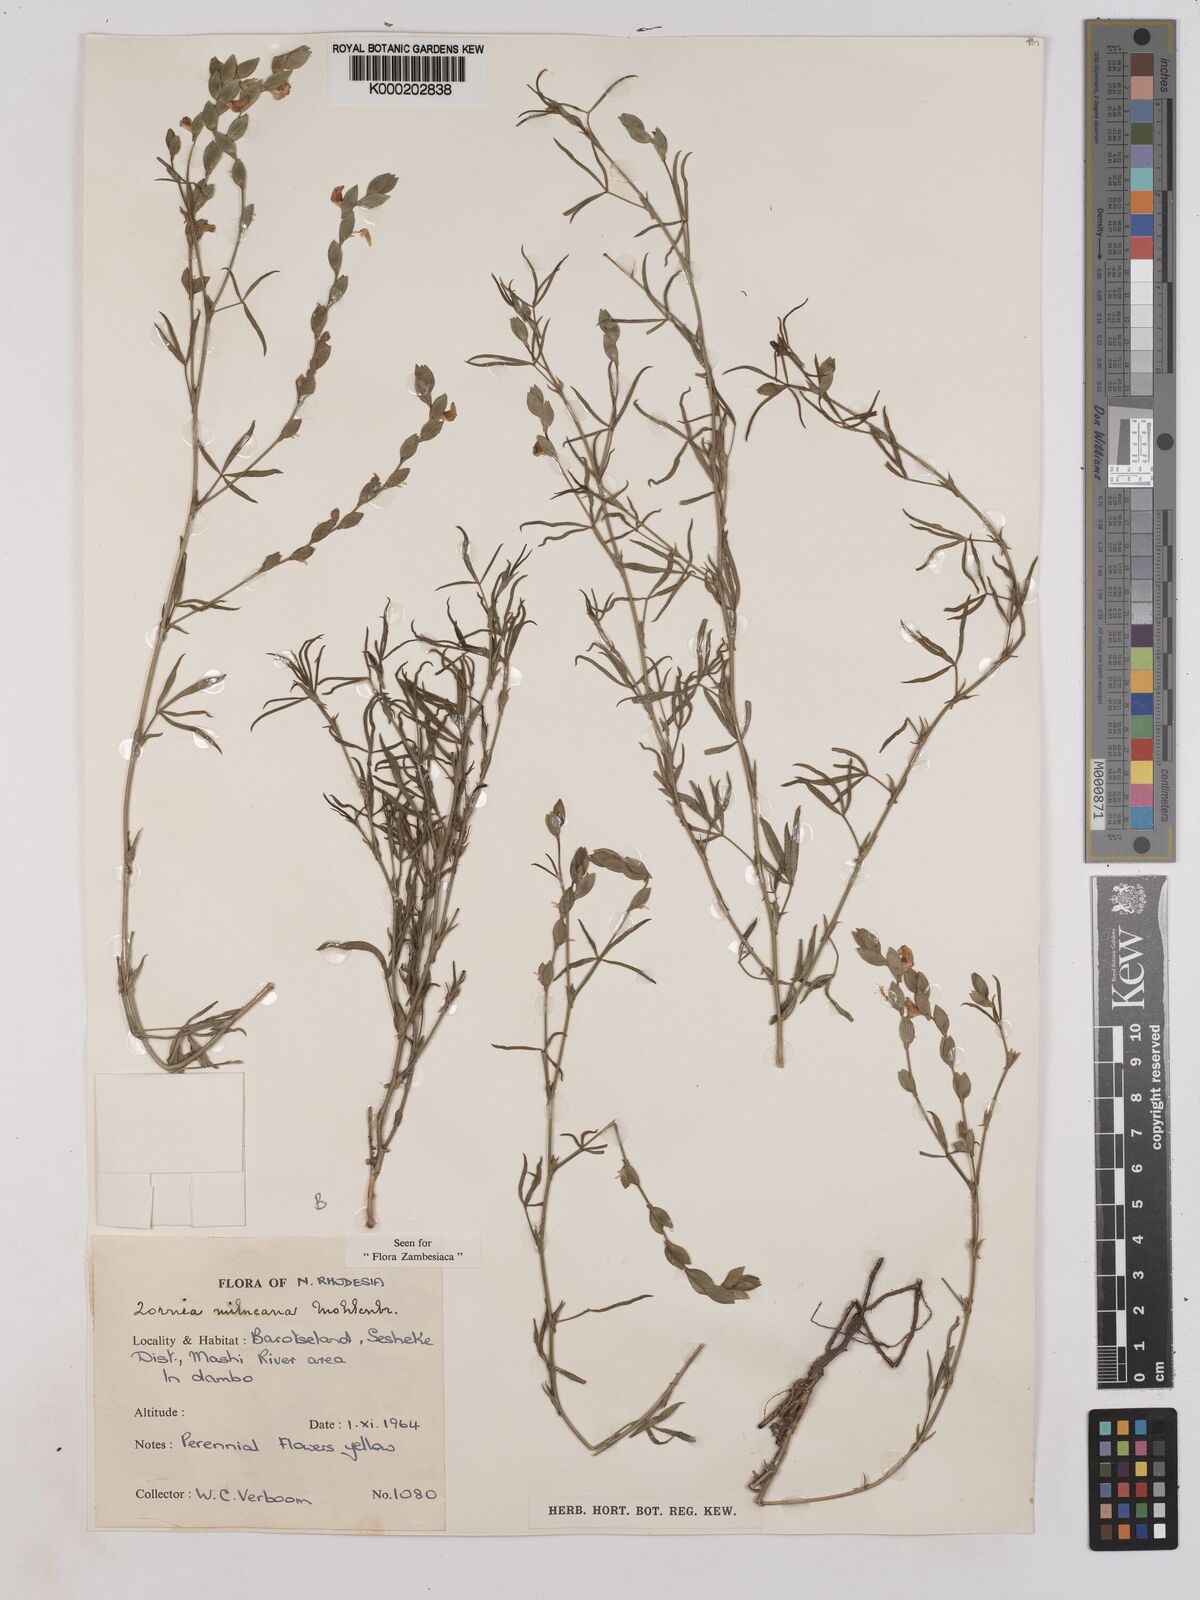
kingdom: Plantae
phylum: Tracheophyta
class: Magnoliopsida
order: Fabales
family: Fabaceae
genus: Zornia
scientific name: Zornia milneana
